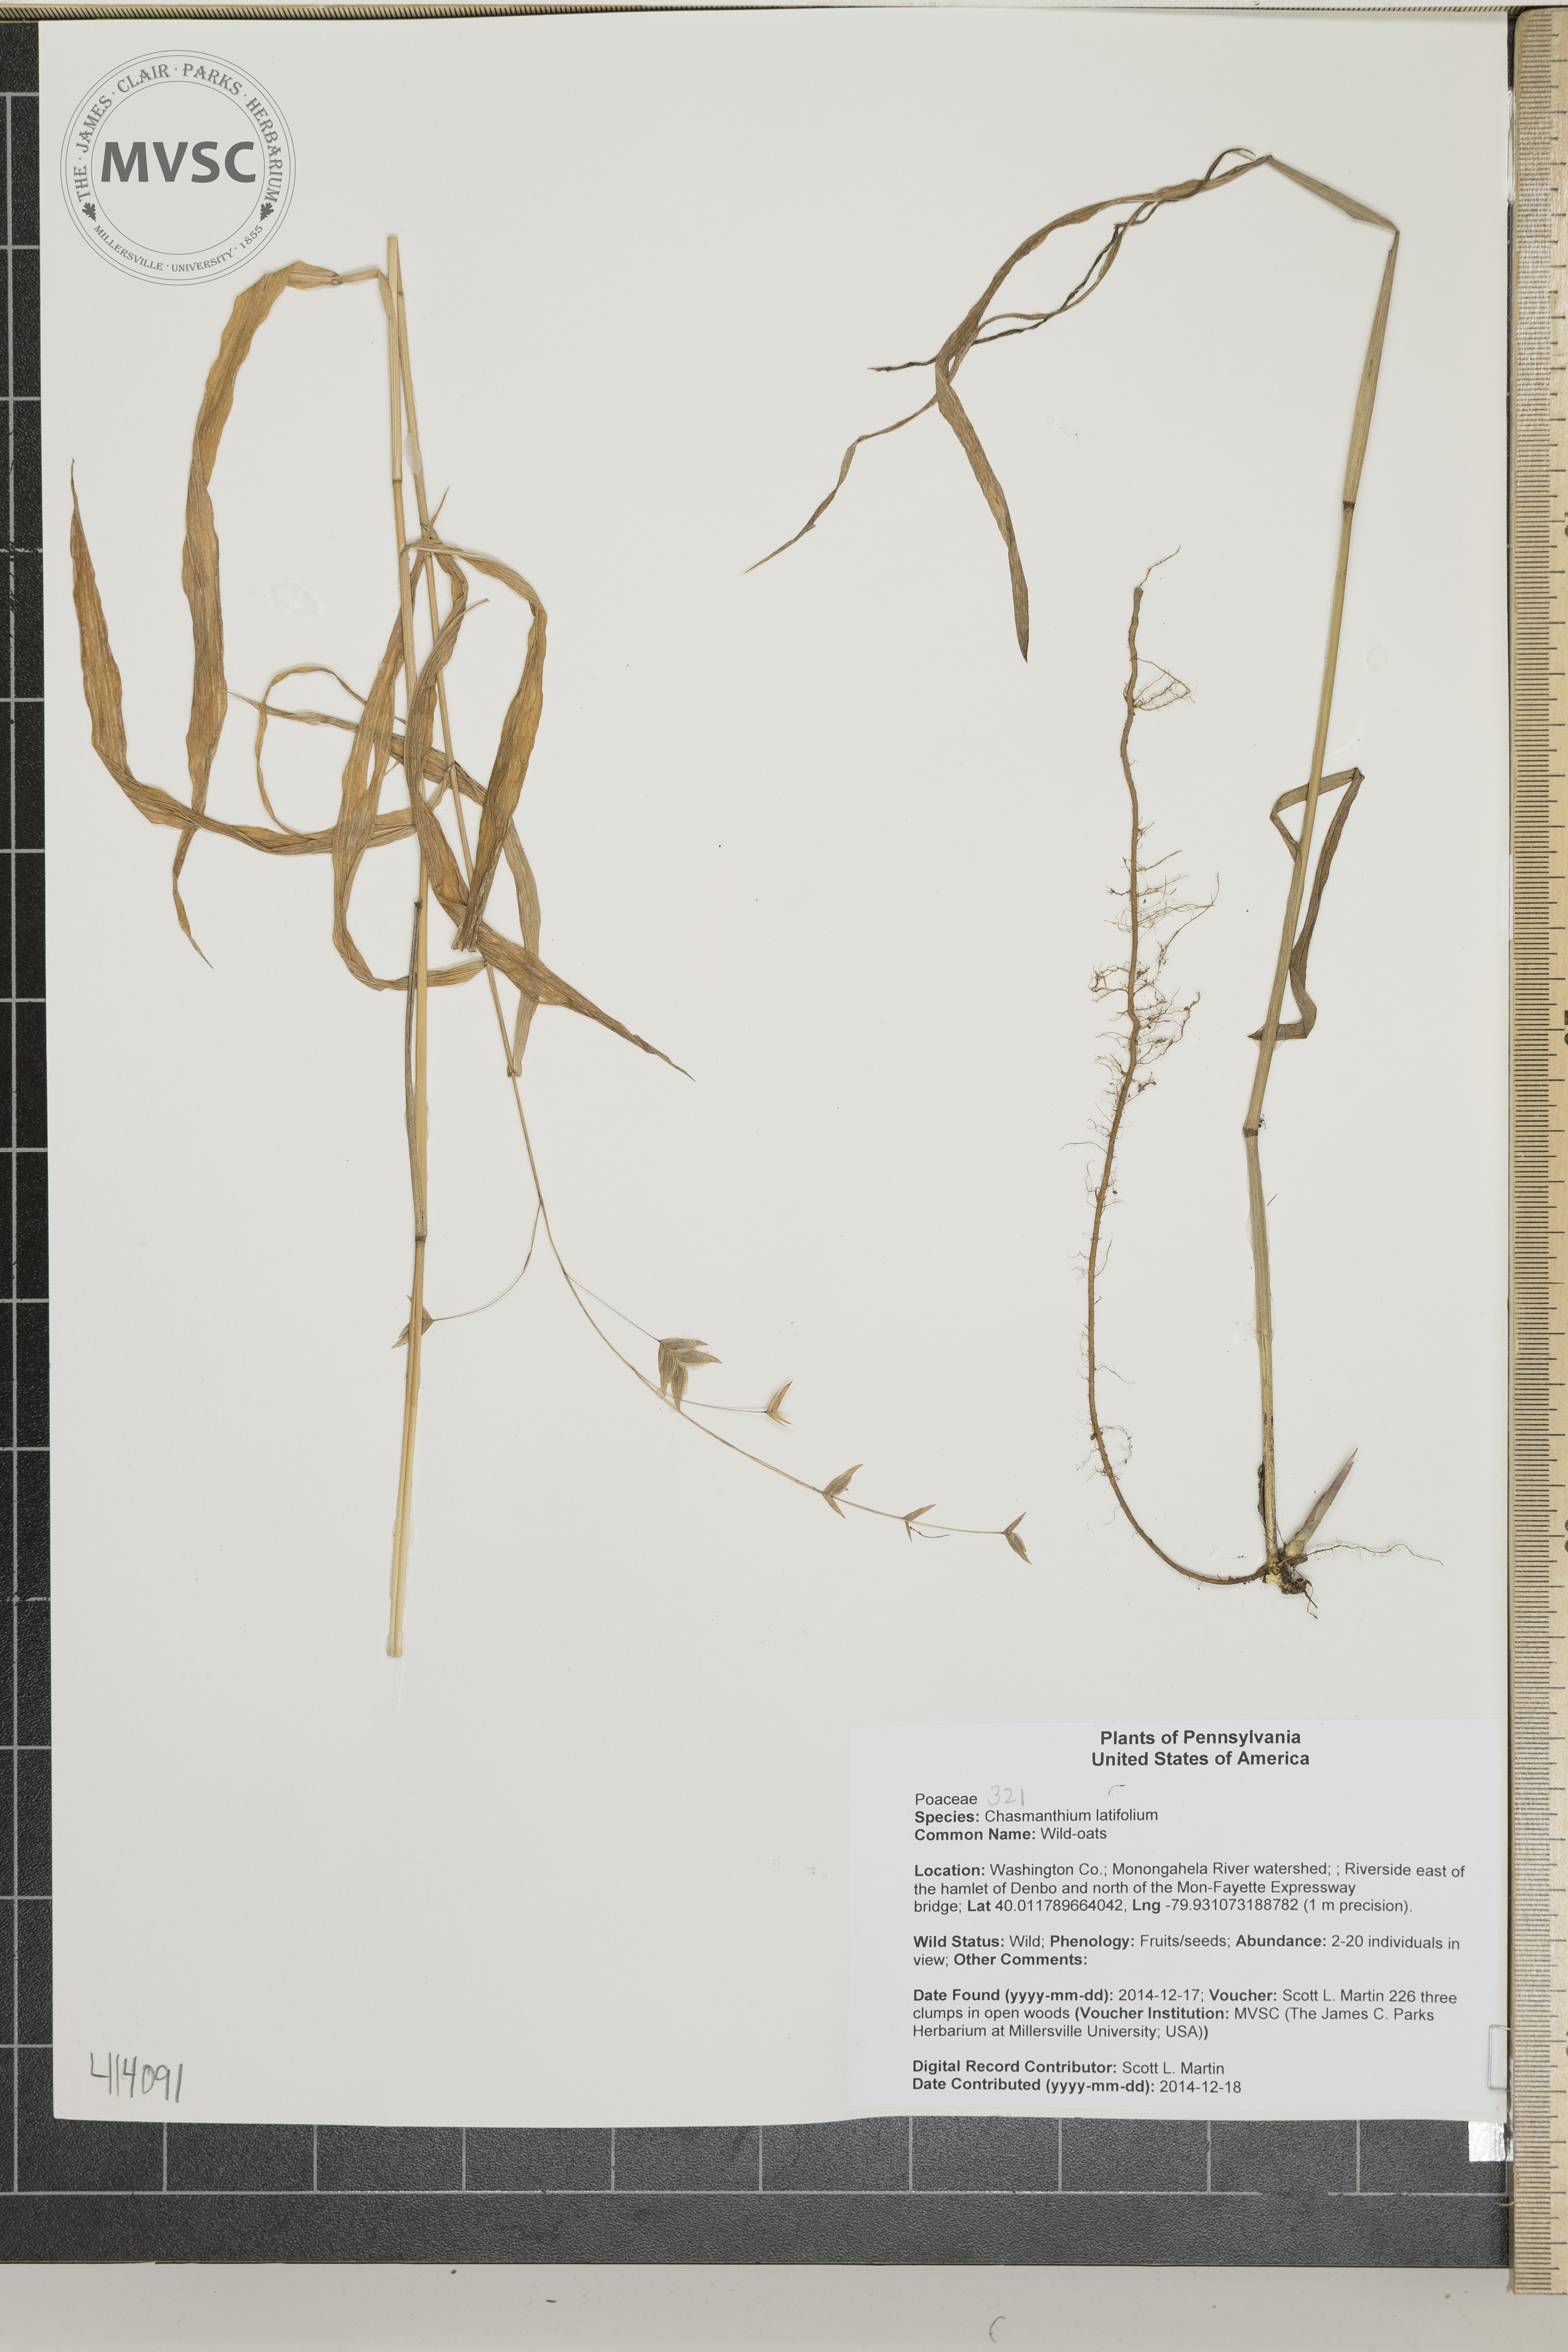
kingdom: Plantae
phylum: Tracheophyta
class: Liliopsida
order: Poales
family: Poaceae
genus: Chasmanthium
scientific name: Chasmanthium latifolium
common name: Wild-oats
